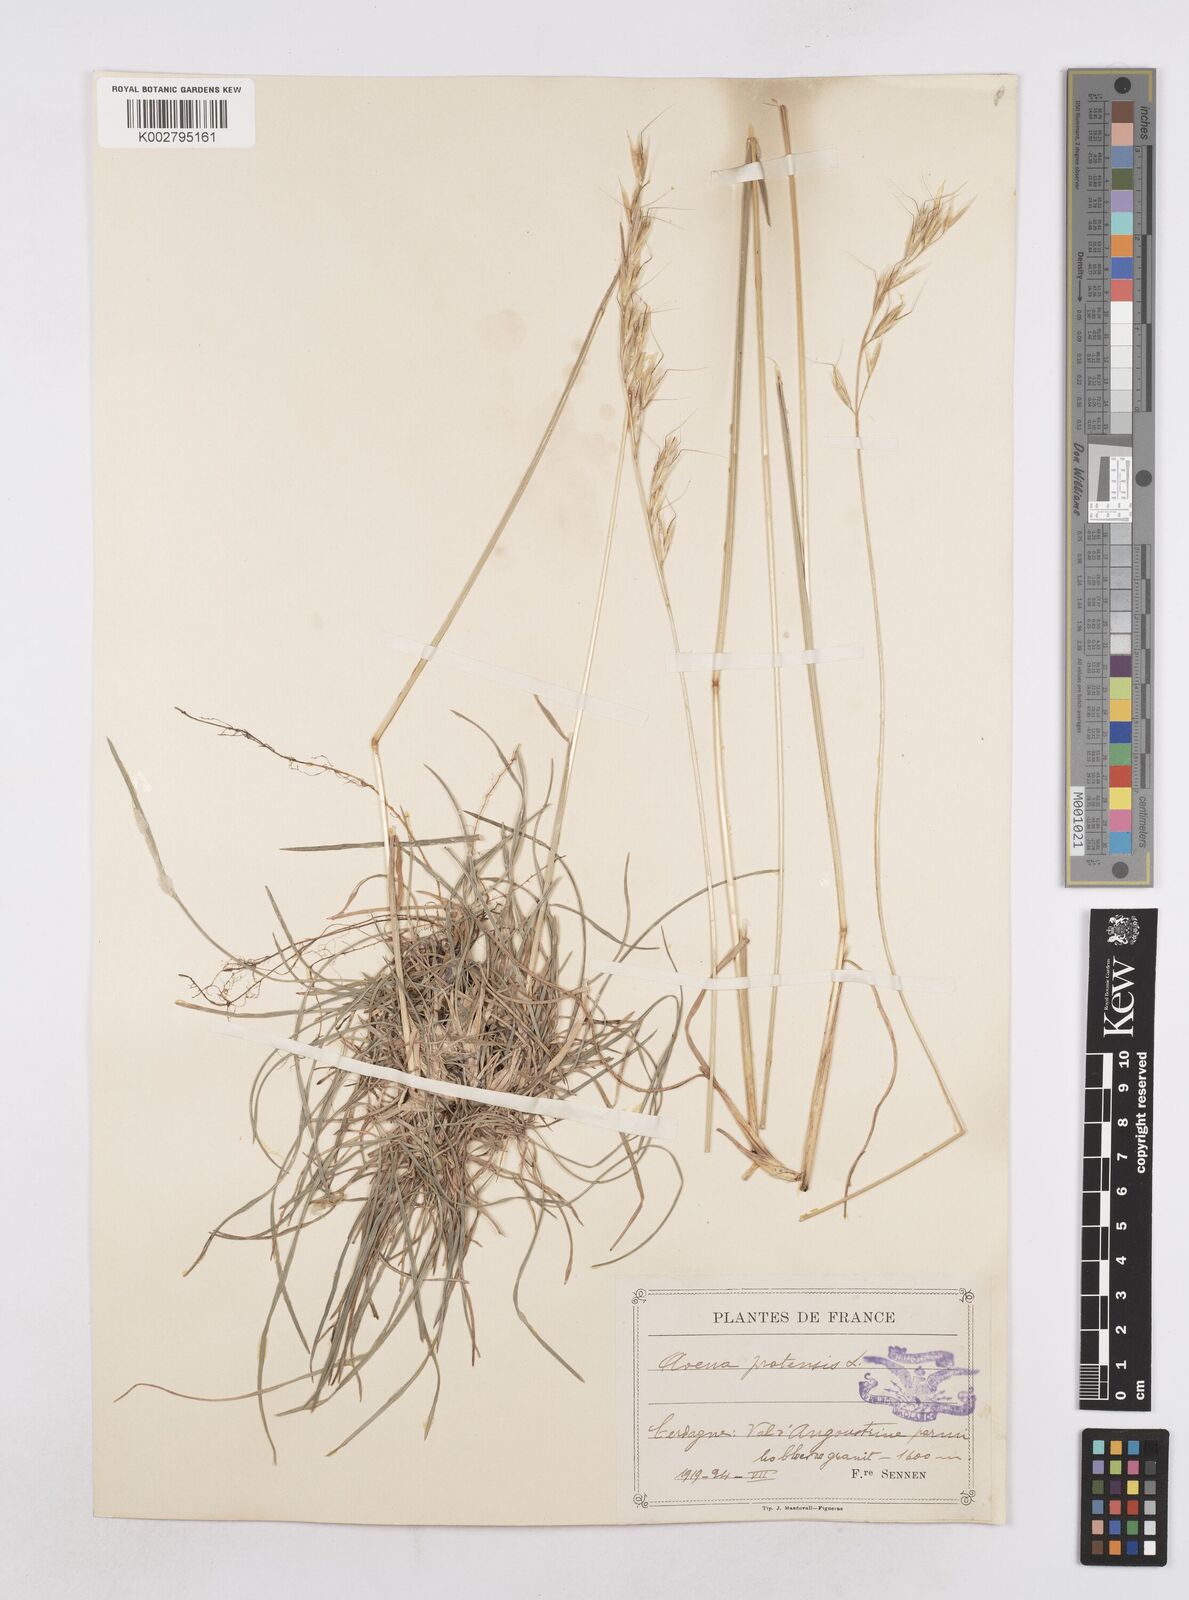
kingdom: Plantae
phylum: Tracheophyta
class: Liliopsida
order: Poales
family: Poaceae
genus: Helictochloa
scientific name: Helictochloa pratensis
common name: Meadow oat grass
